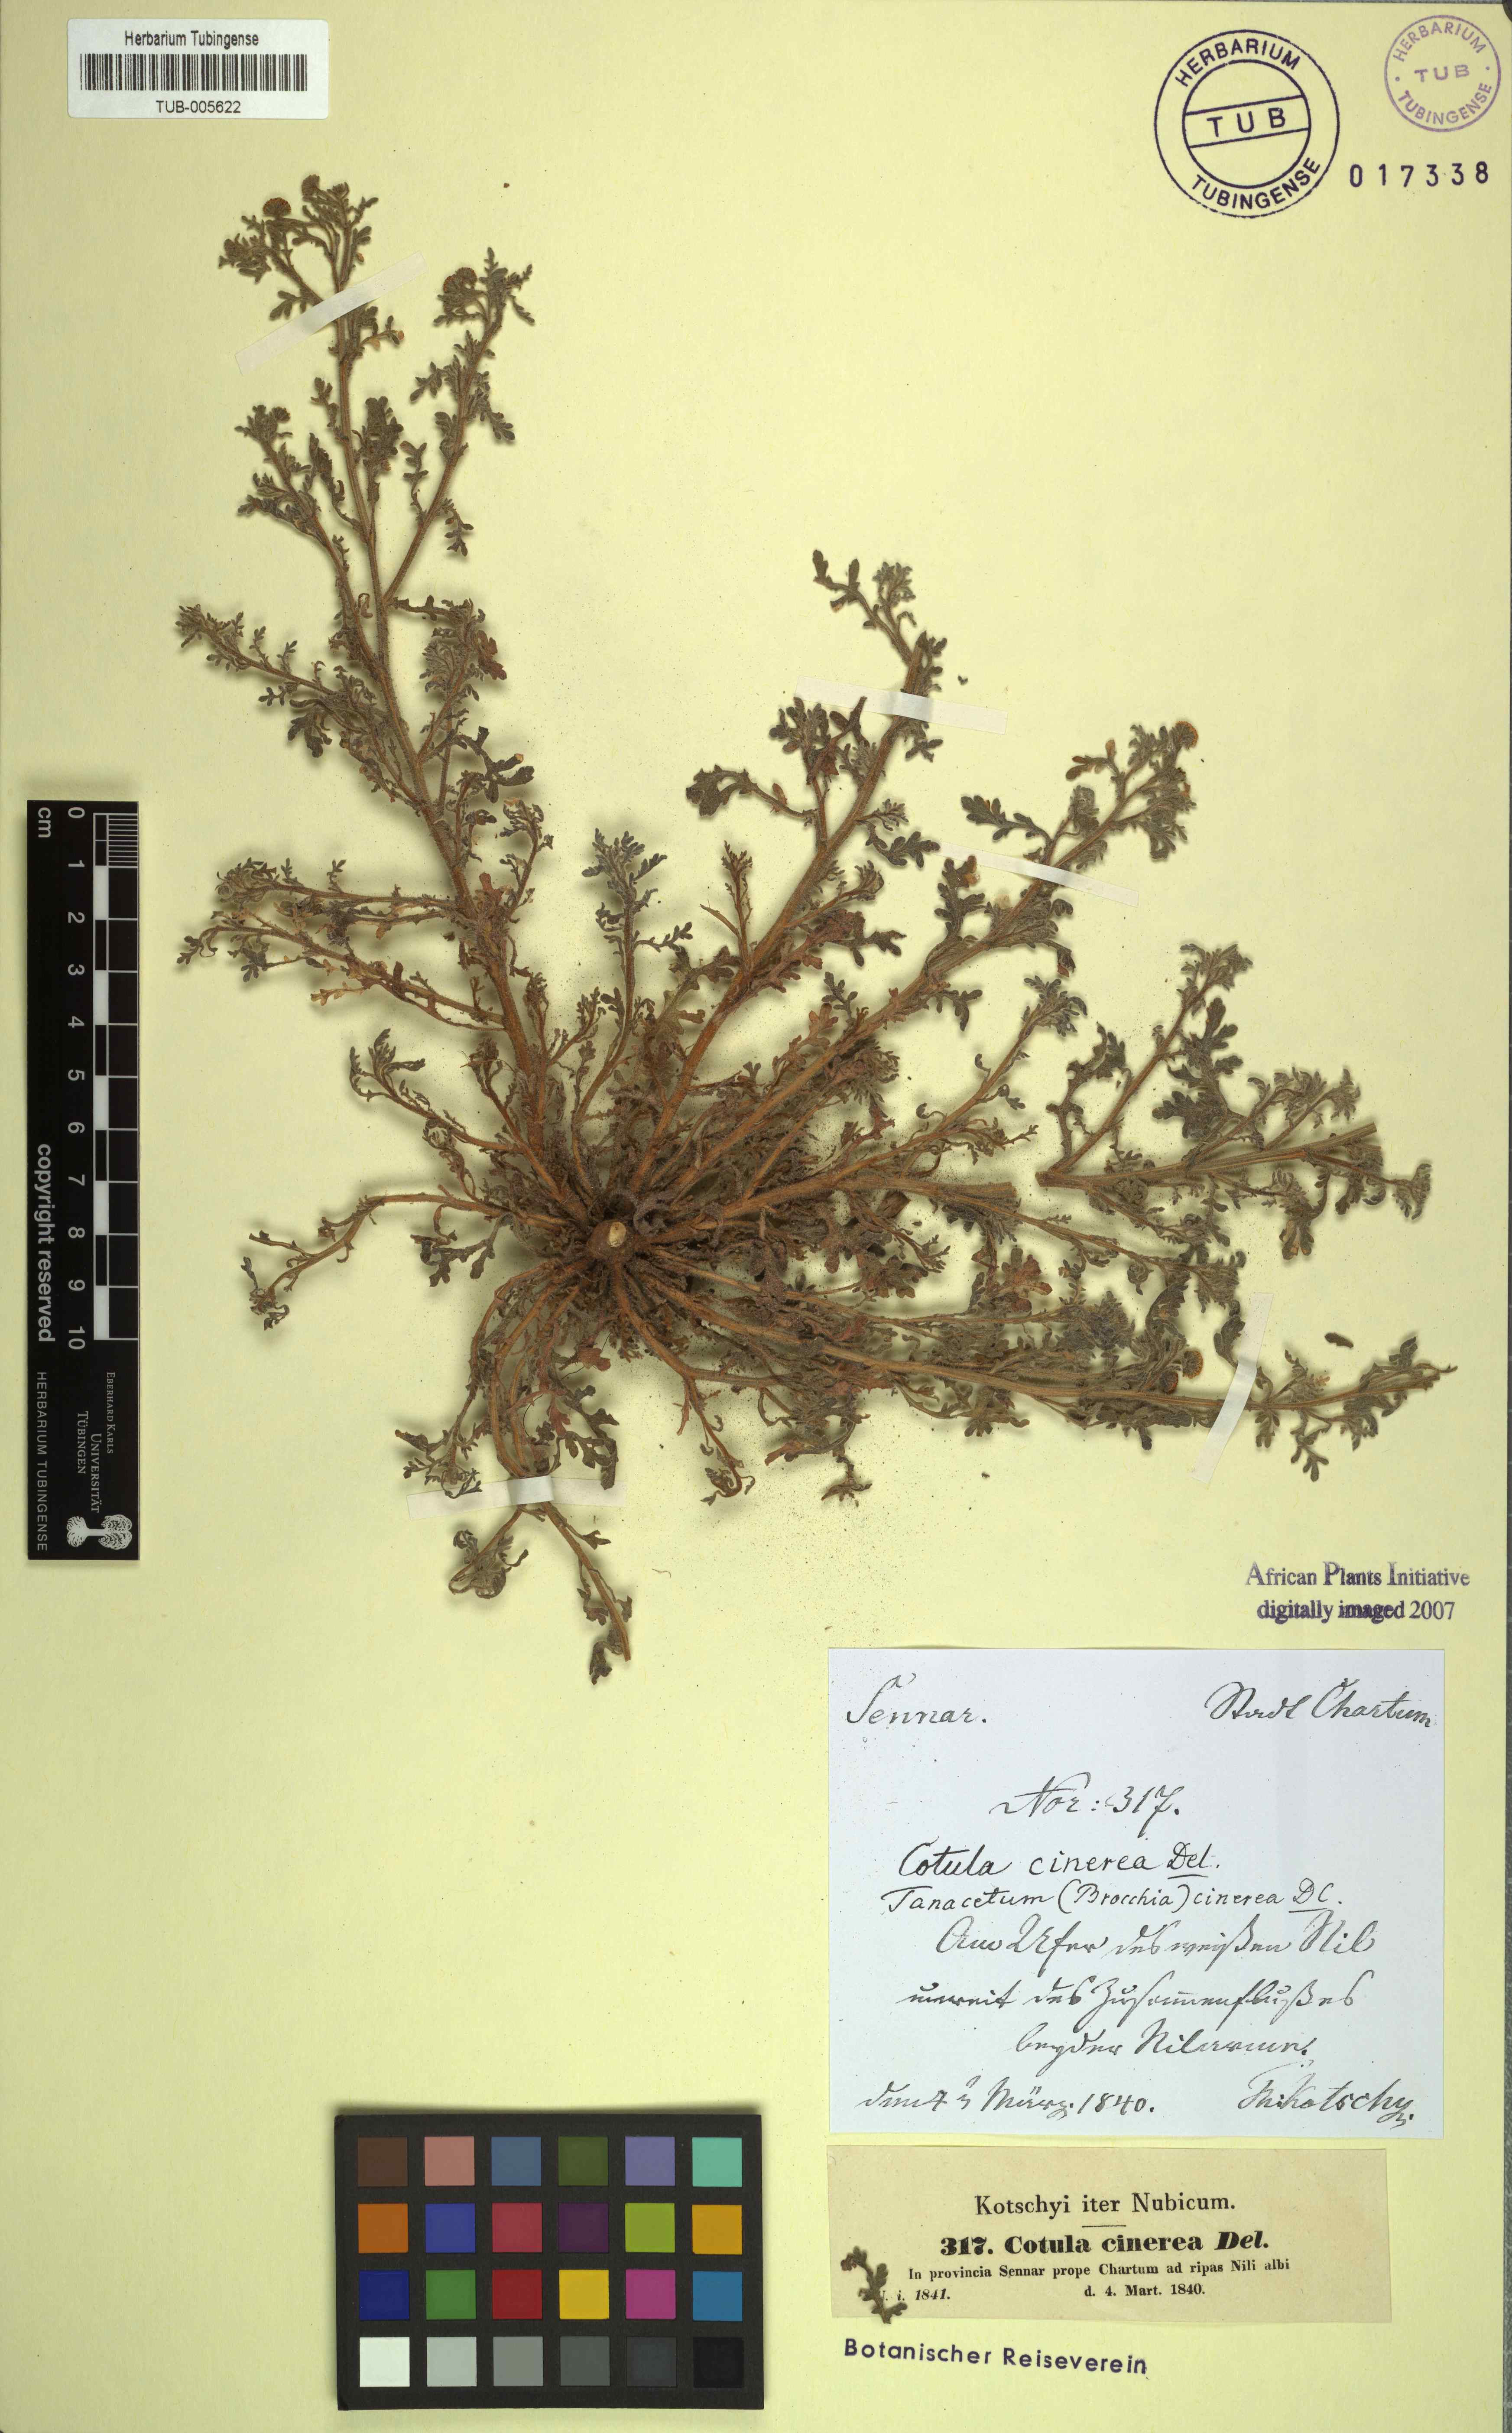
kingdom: Plantae
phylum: Tracheophyta
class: Magnoliopsida
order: Asterales
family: Asteraceae
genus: Brocchia
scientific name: Brocchia cinerea
